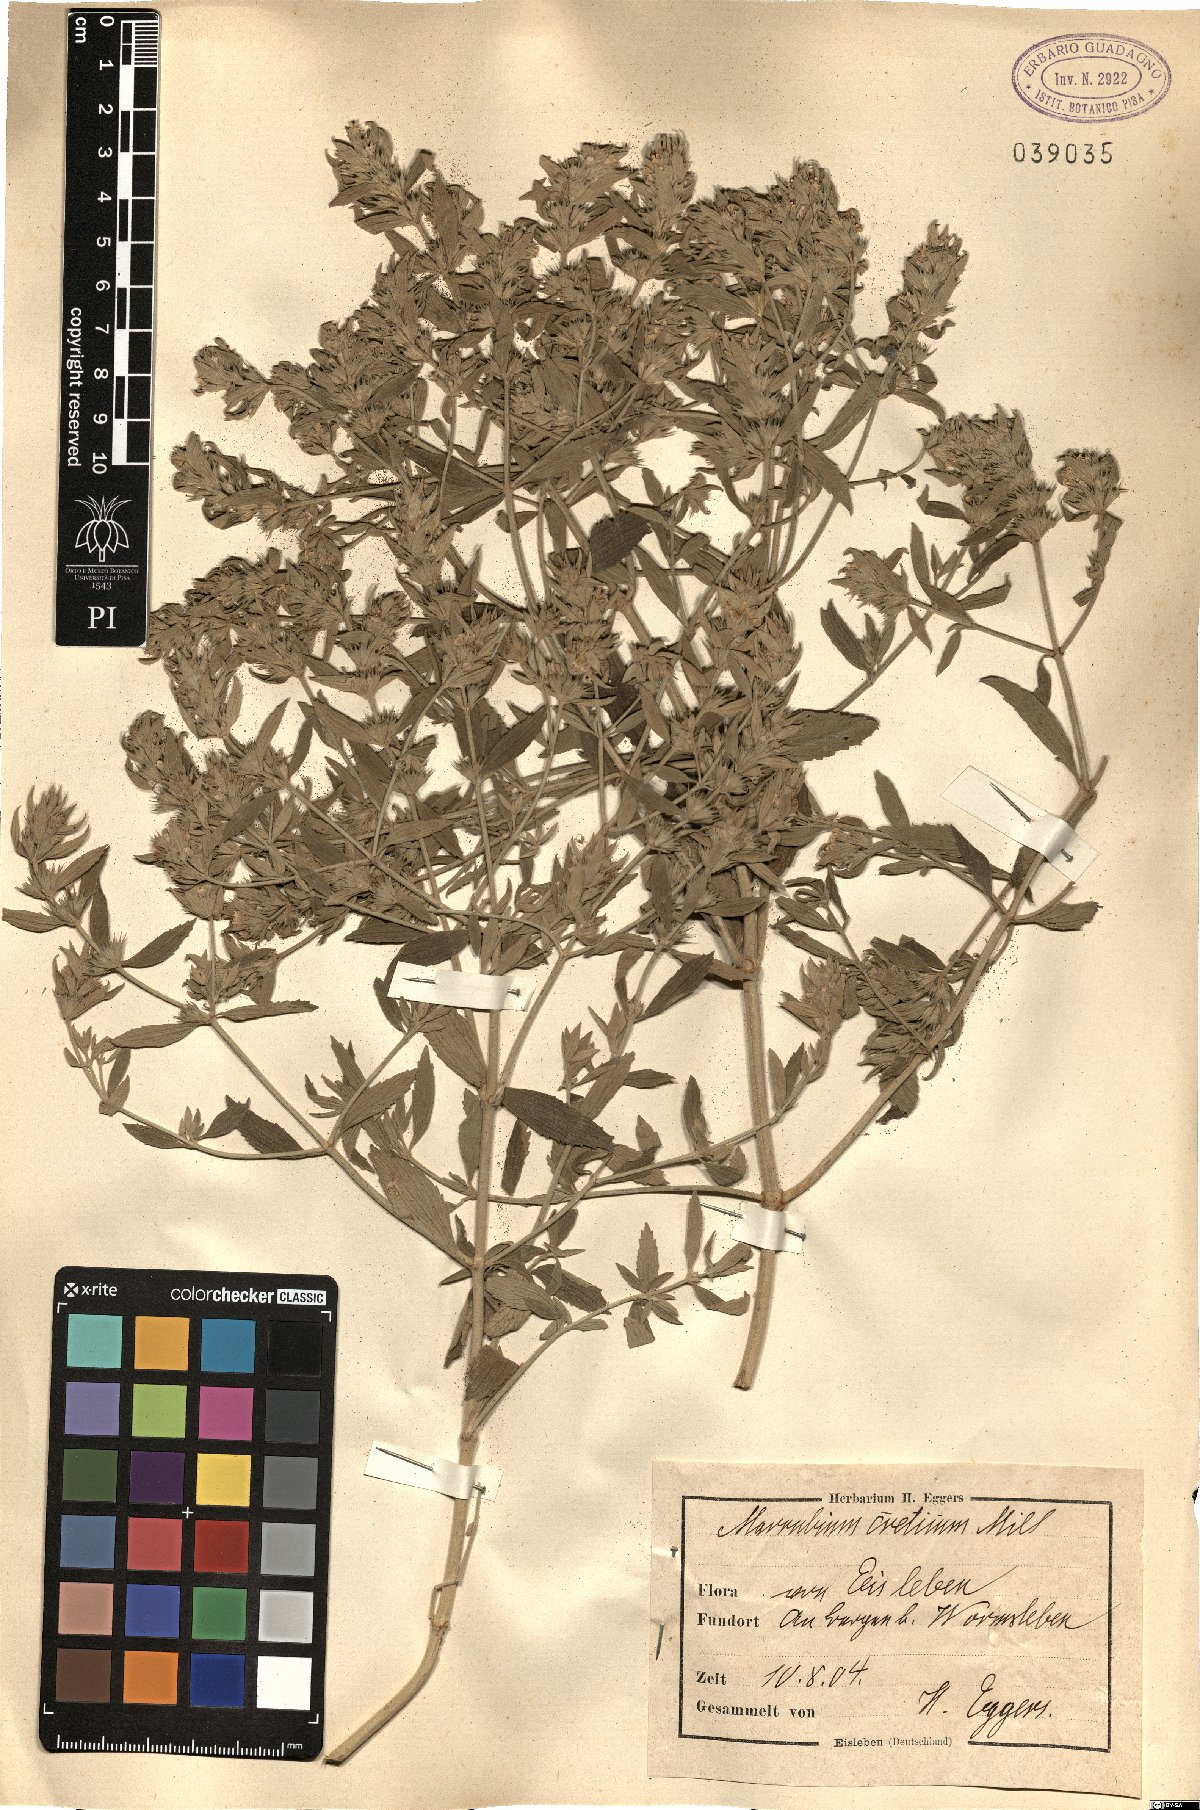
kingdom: Plantae
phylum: Tracheophyta
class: Magnoliopsida
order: Lamiales
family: Lamiaceae
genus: Marrubium
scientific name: Marrubium peregrinum
